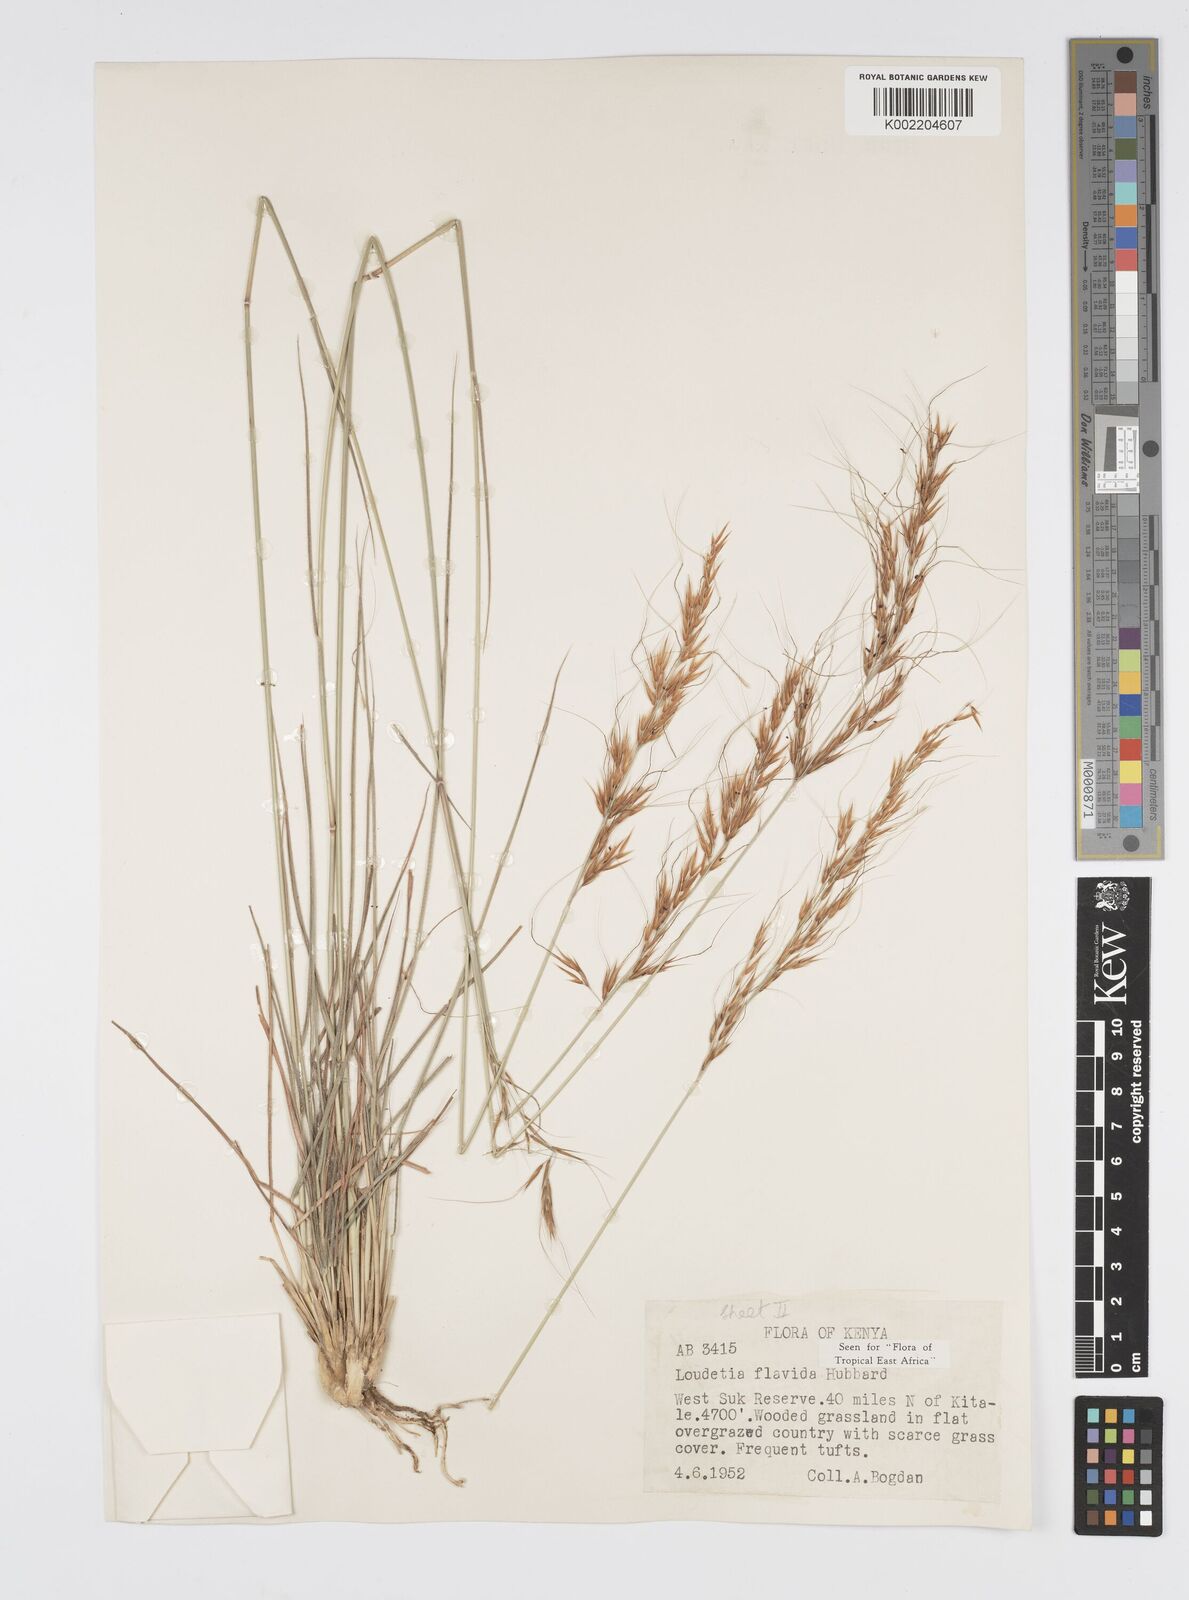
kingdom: Plantae
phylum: Tracheophyta
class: Liliopsida
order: Poales
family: Poaceae
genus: Loudetia
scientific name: Loudetia flavida
